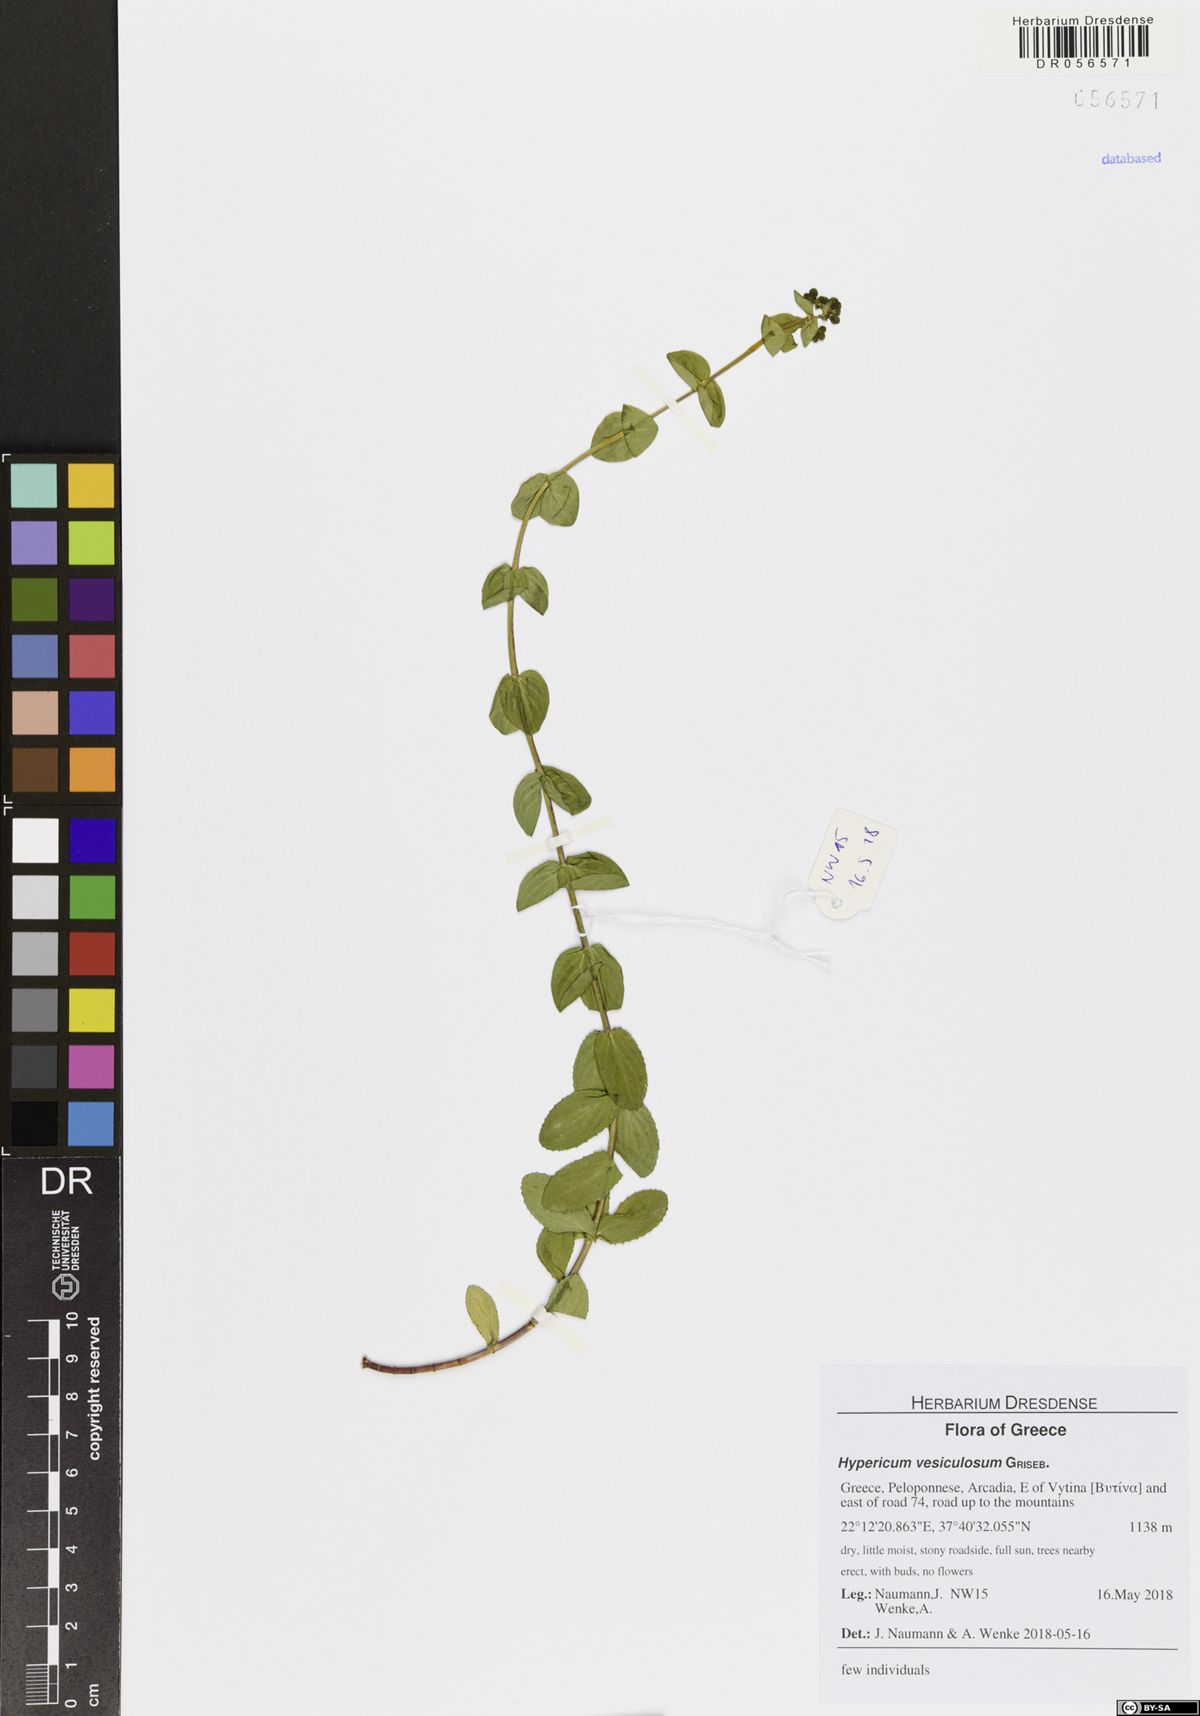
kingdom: Plantae
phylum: Tracheophyta
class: Magnoliopsida
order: Malpighiales
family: Hypericaceae
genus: Hypericum
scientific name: Hypericum vesiculosum
